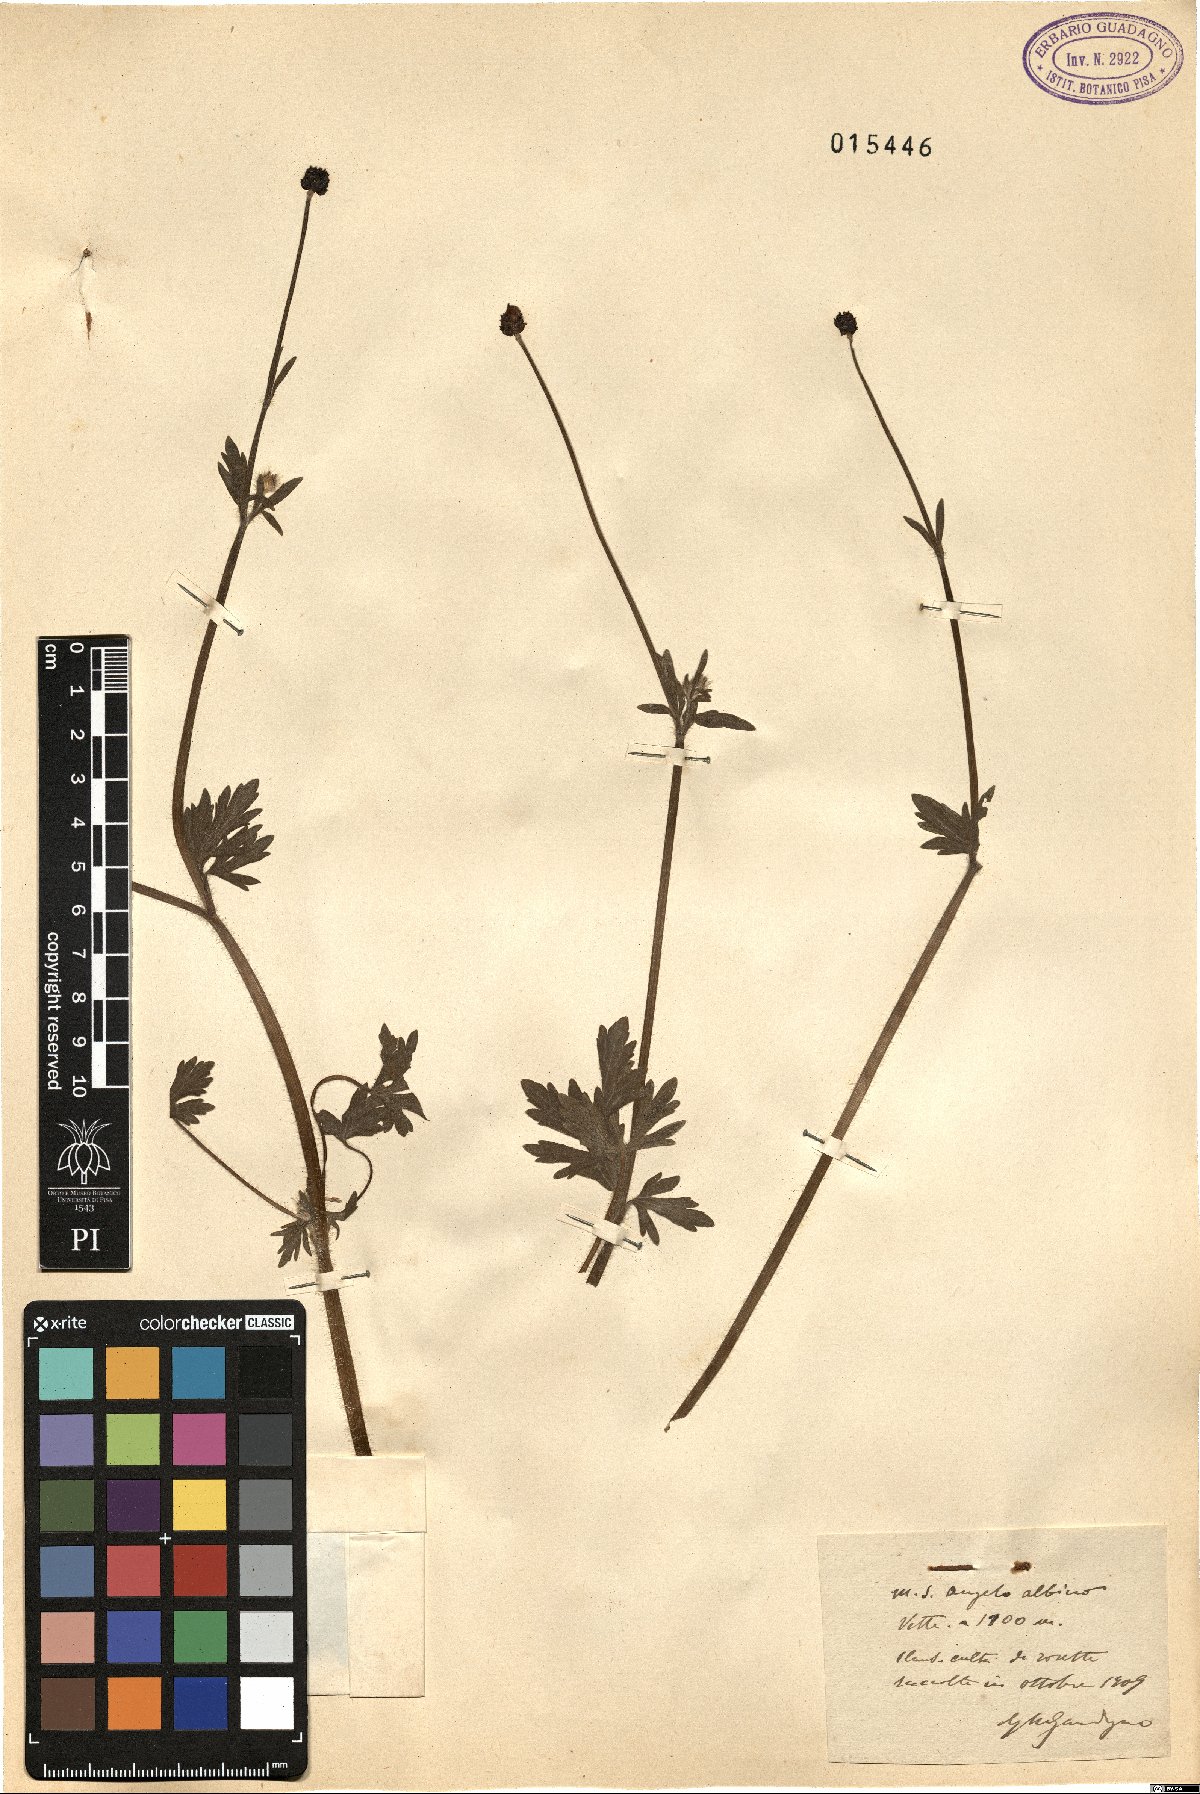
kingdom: Plantae
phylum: Tracheophyta
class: Magnoliopsida
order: Ranunculales
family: Ranunculaceae
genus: Ranunculus
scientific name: Ranunculus
